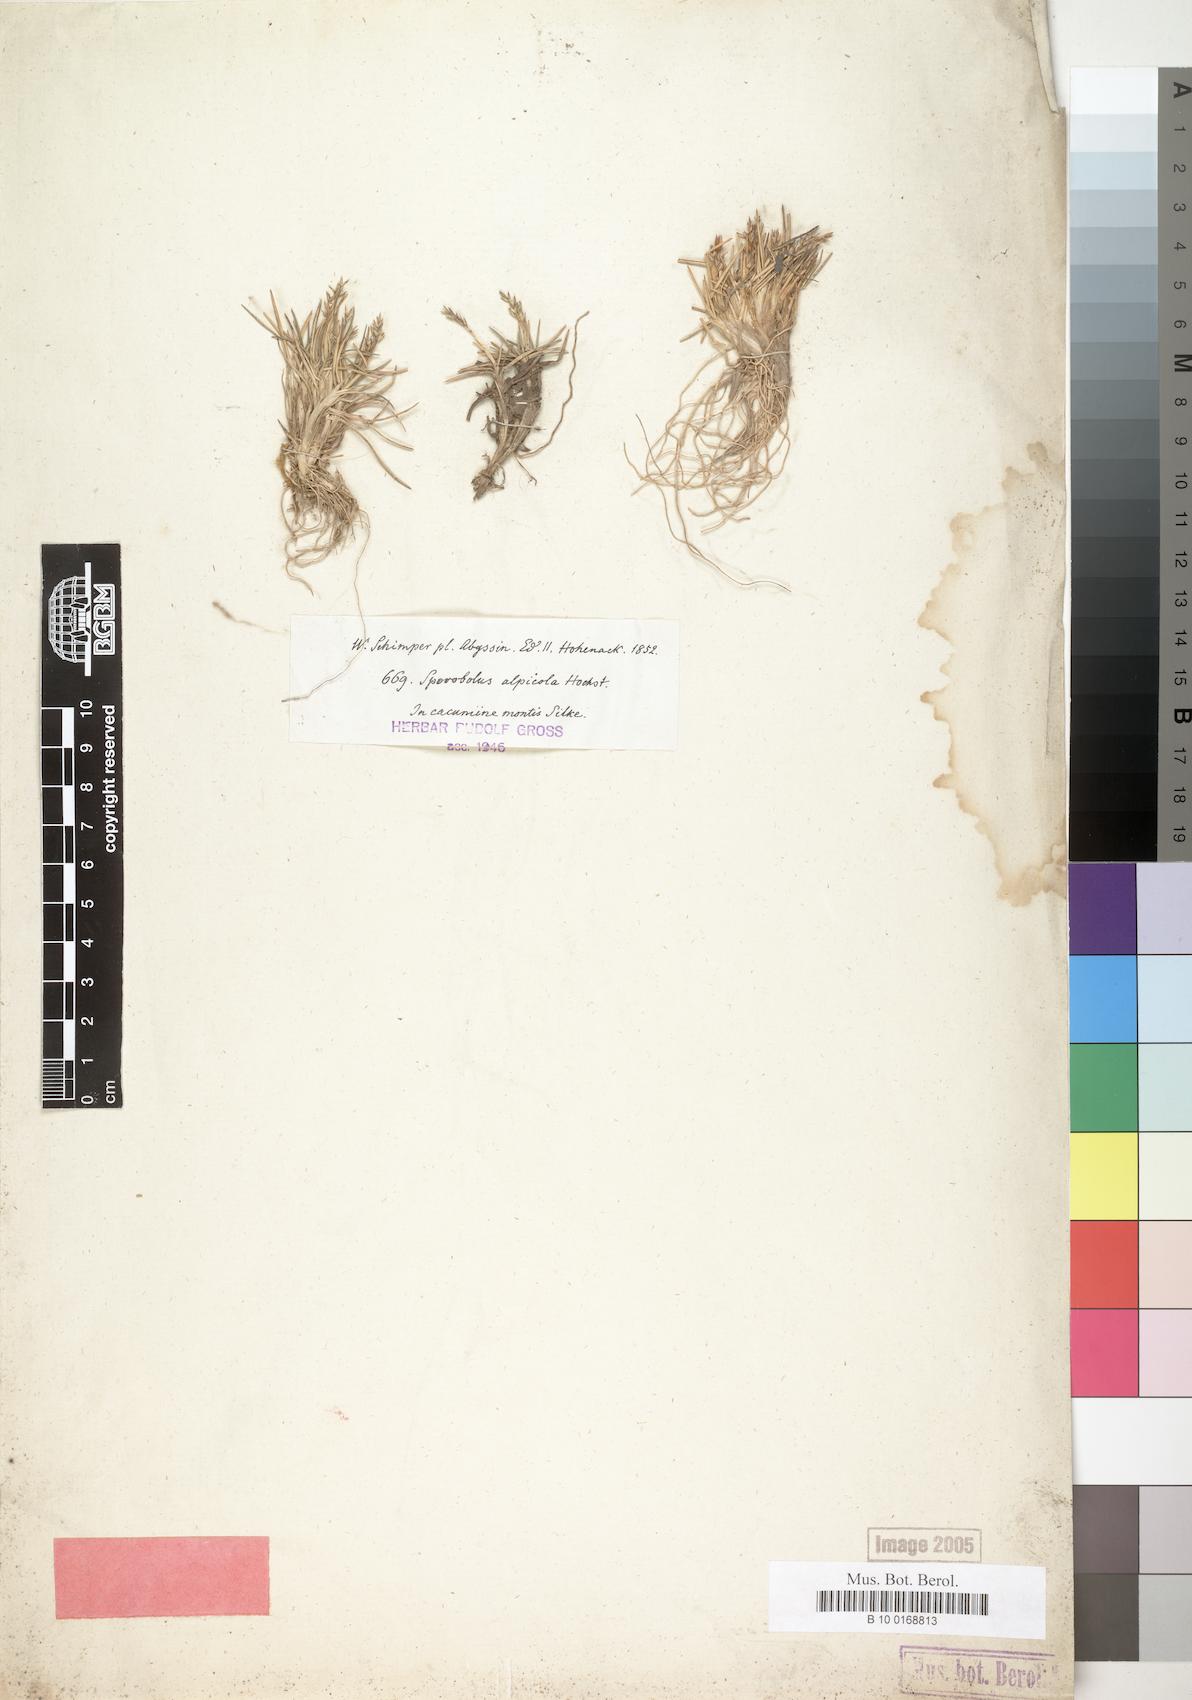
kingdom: Plantae
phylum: Tracheophyta
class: Liliopsida
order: Poales
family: Poaceae
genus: Agrostis
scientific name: Agrostis sclerophylla
